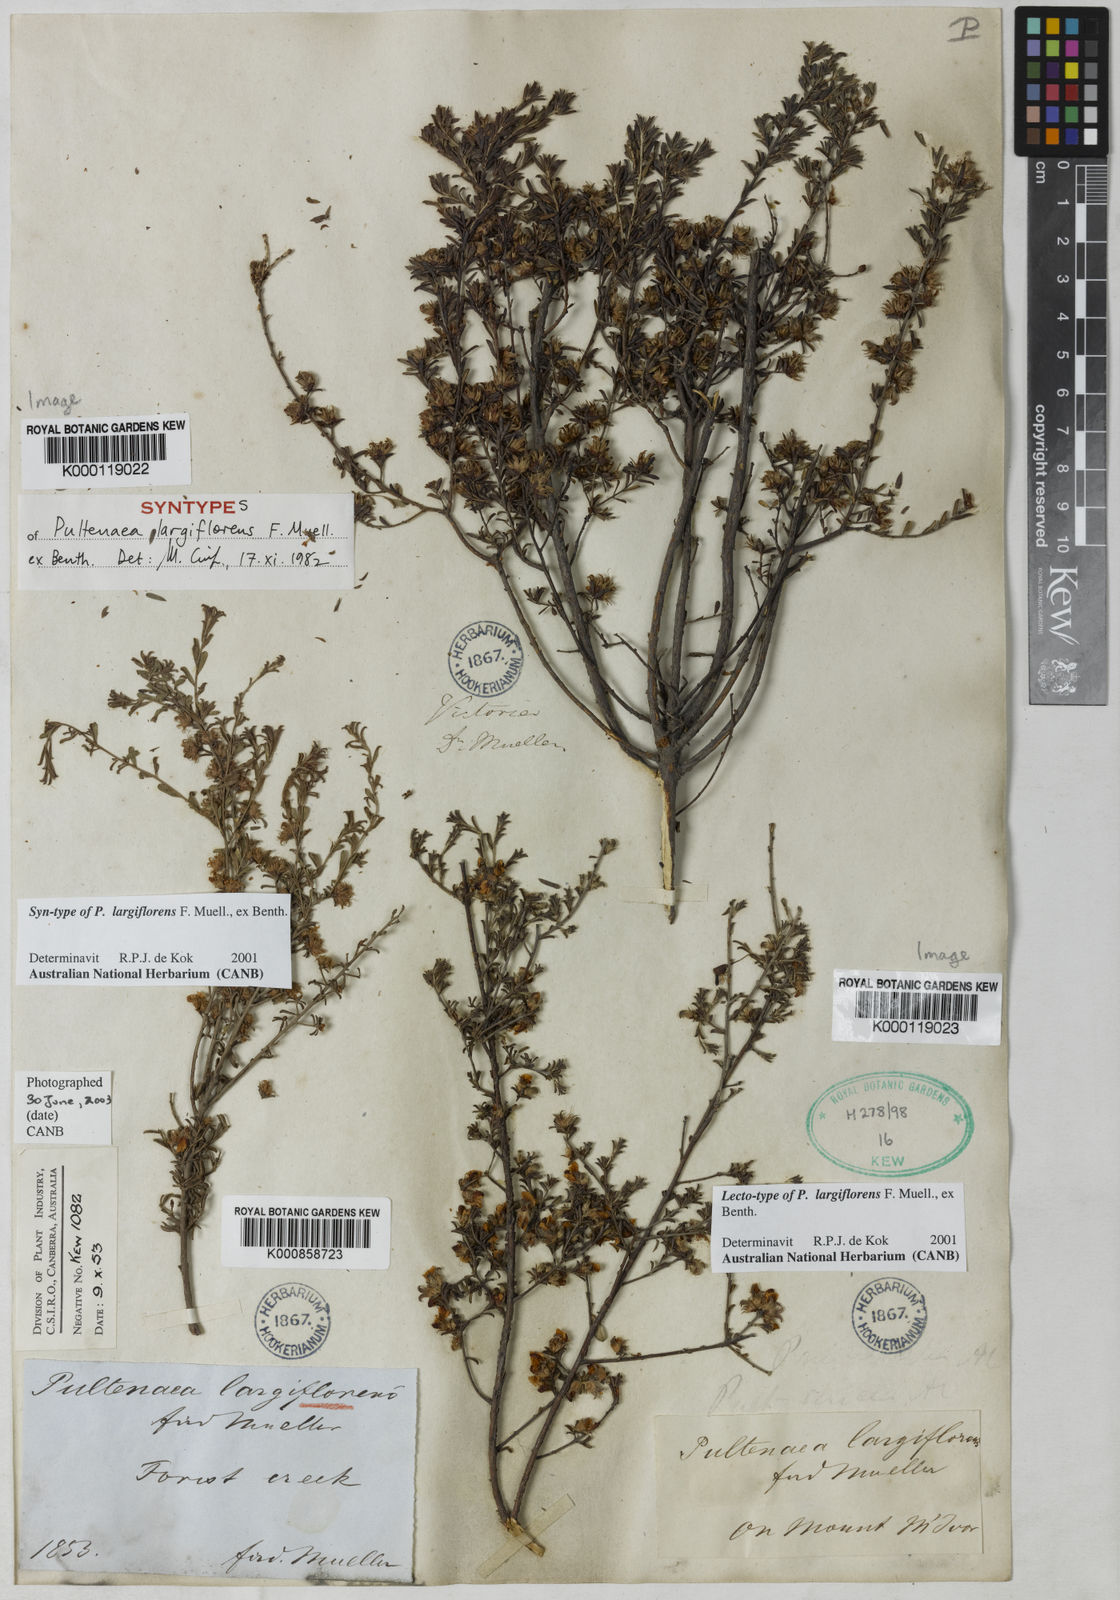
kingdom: Plantae
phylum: Tracheophyta
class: Magnoliopsida
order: Fabales
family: Fabaceae
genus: Pultenaea
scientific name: Pultenaea largiflorens
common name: Twiggy bush-pea
